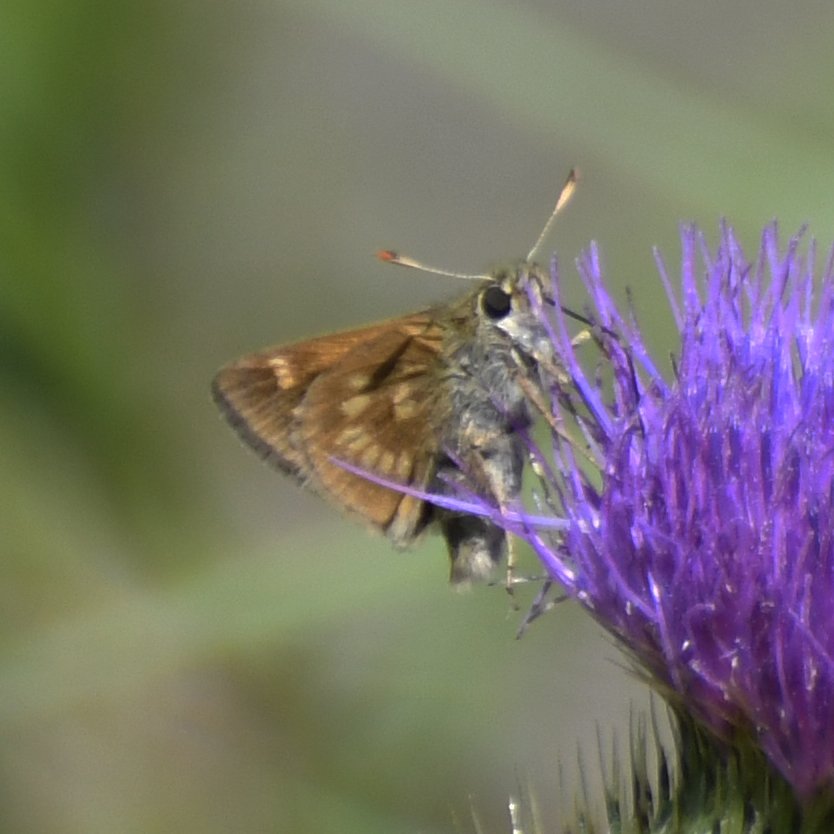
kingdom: Animalia
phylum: Arthropoda
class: Insecta
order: Lepidoptera
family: Hesperiidae
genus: Polites
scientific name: Polites
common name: Long Dash Skipper
